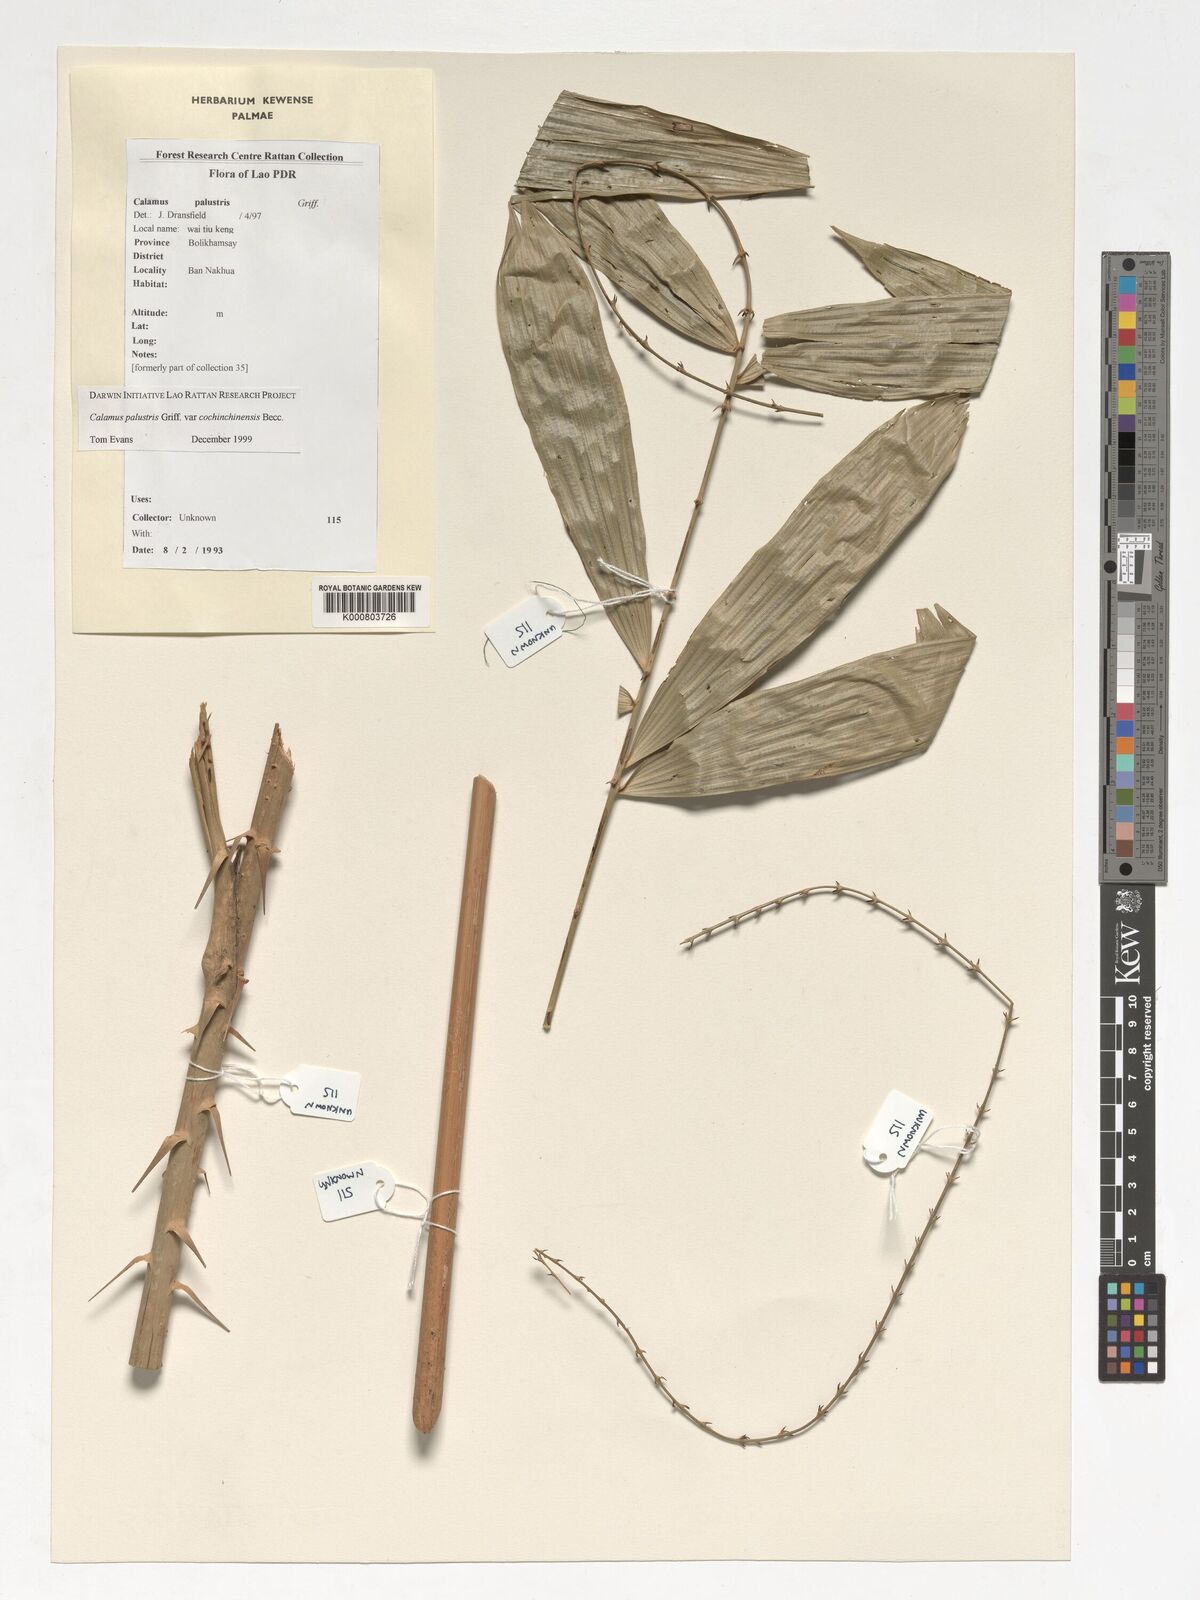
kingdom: Plantae
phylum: Tracheophyta
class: Liliopsida
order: Arecales
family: Arecaceae
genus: Calamus
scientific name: Calamus latifolius
